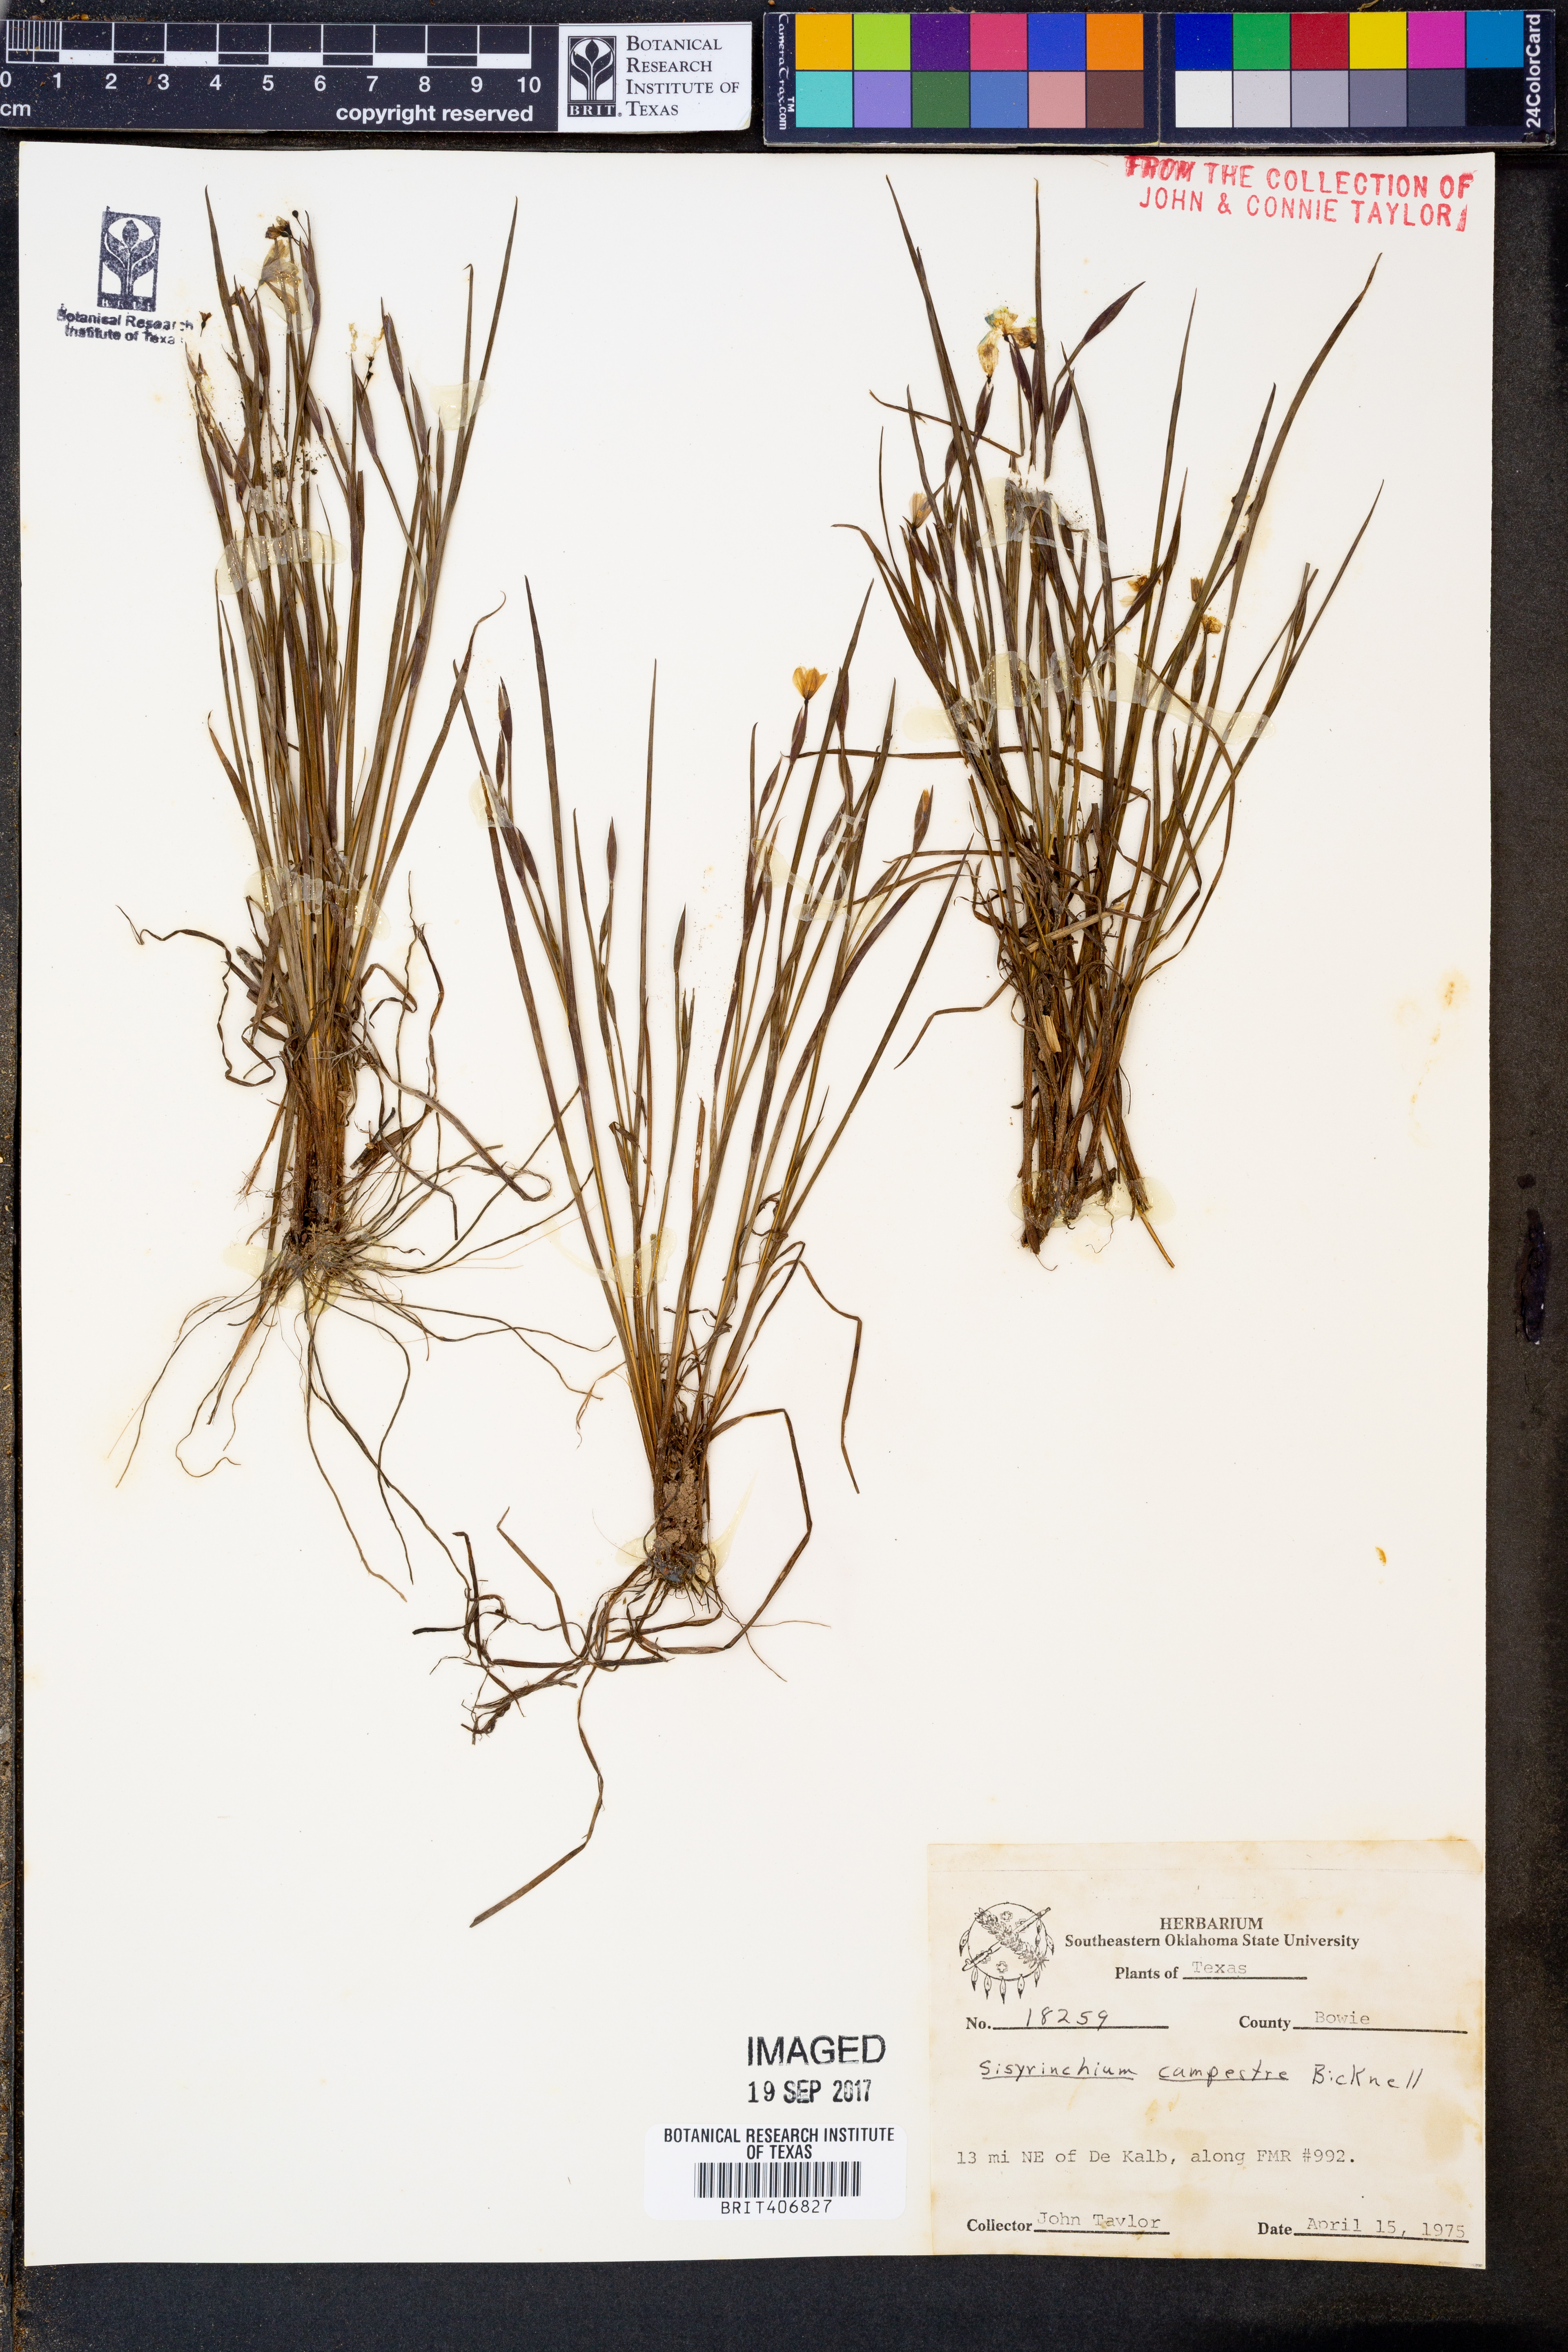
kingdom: Plantae
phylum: Tracheophyta
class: Liliopsida
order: Asparagales
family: Iridaceae
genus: Sisyrinchium
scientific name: Sisyrinchium campestre
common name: Prairie blue-eyed-grass
